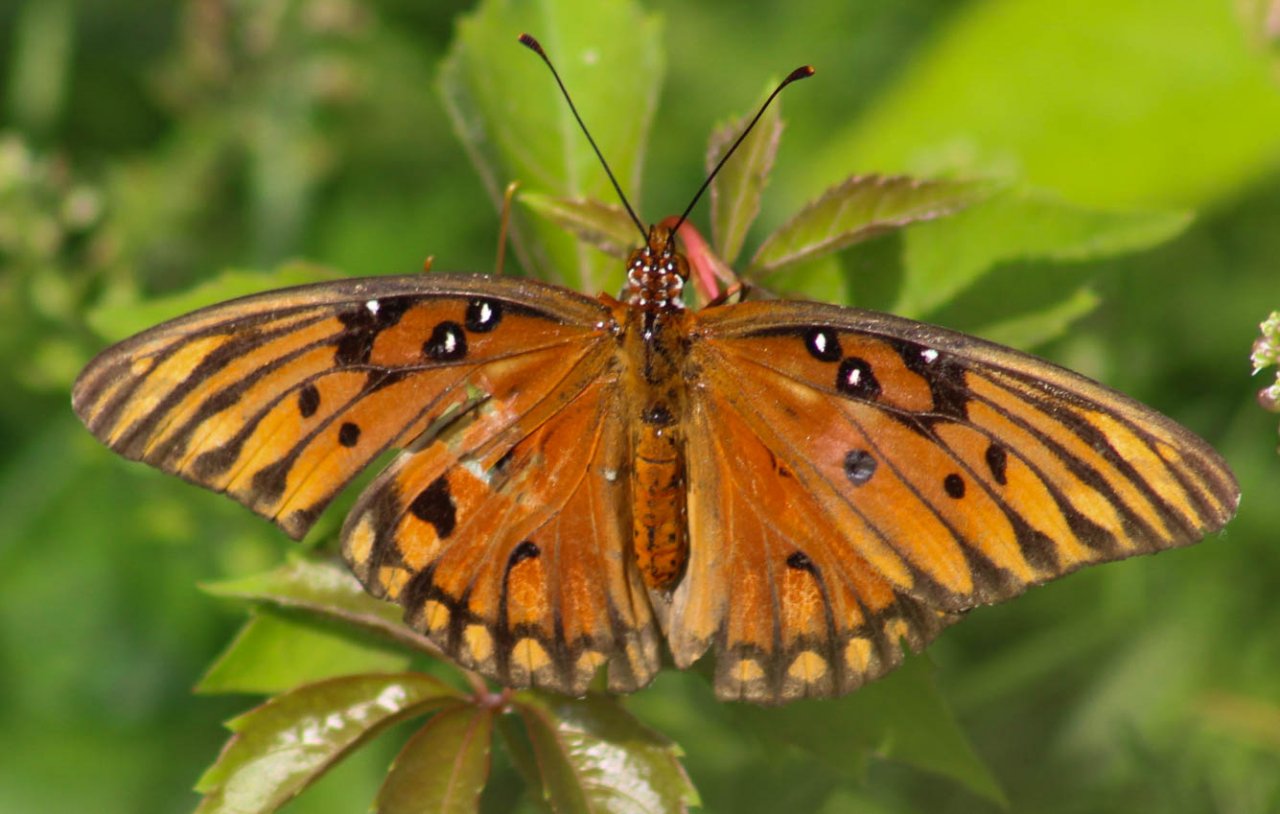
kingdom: Animalia
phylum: Arthropoda
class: Insecta
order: Lepidoptera
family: Nymphalidae
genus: Dione
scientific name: Dione vanillae
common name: Gulf Fritillary
